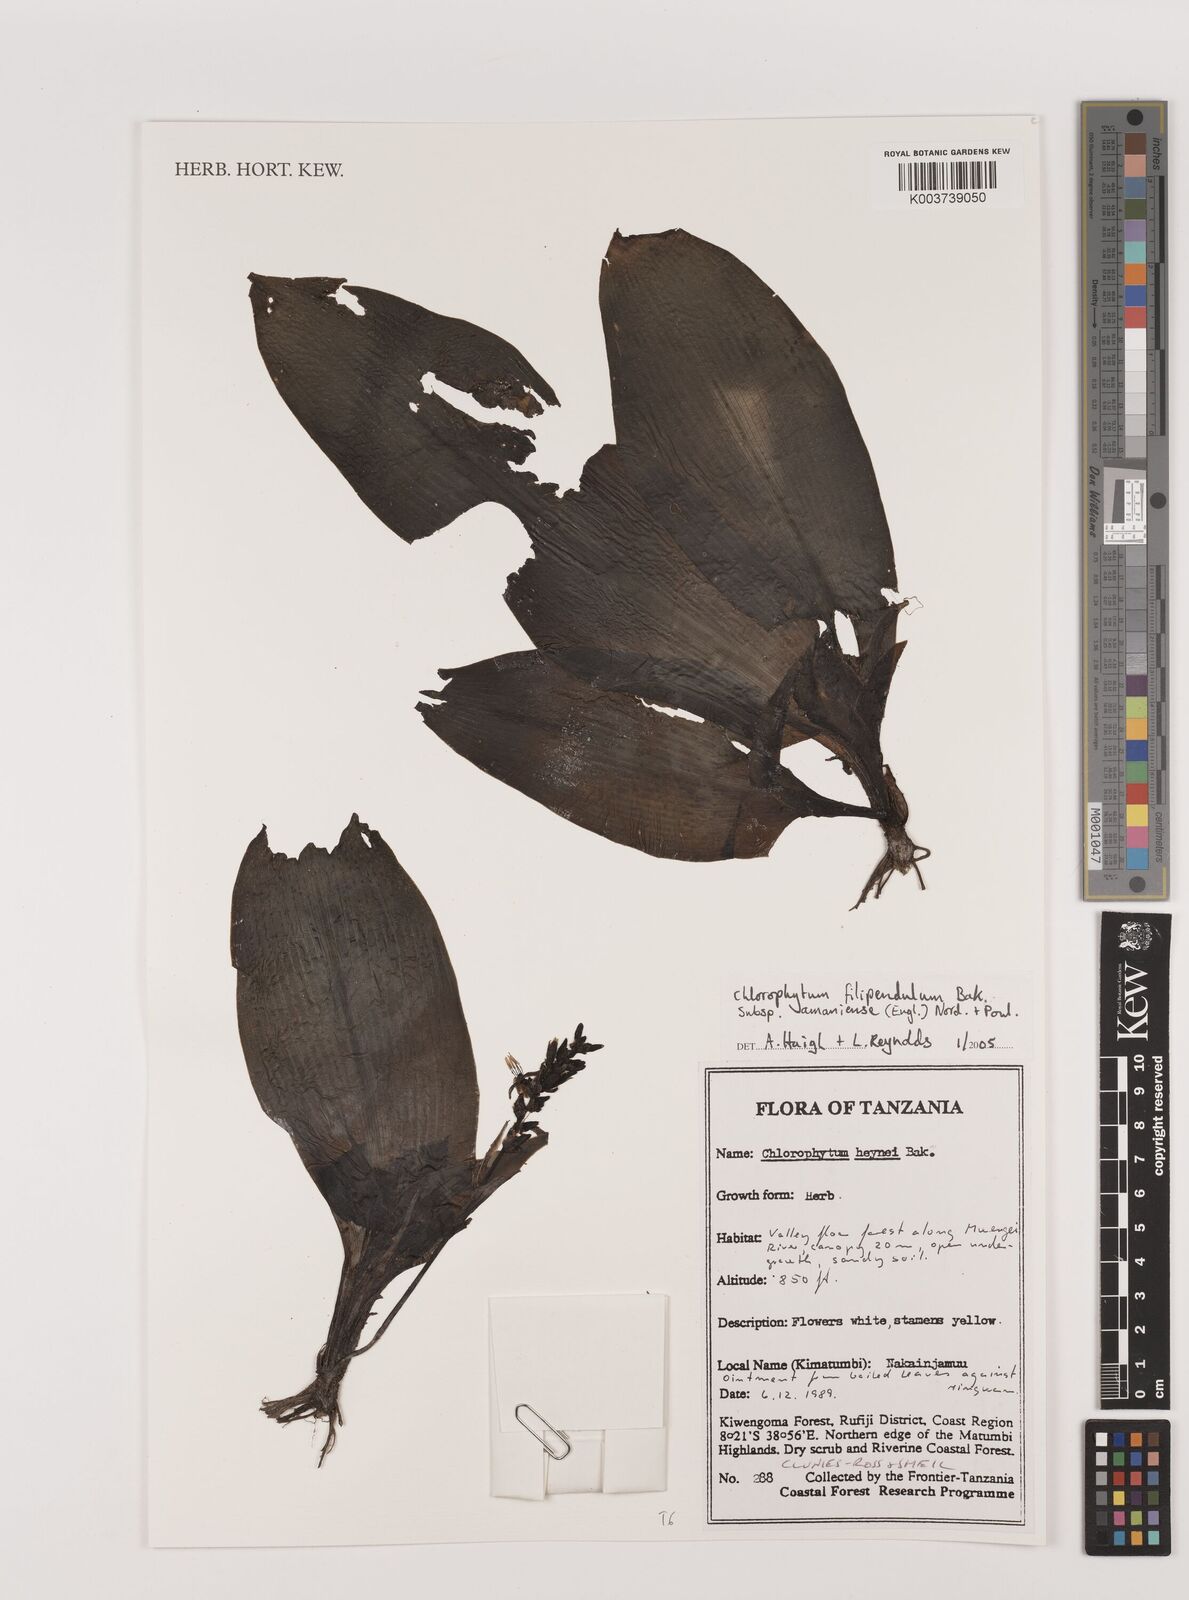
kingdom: Plantae
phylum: Tracheophyta
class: Liliopsida
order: Asparagales
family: Asparagaceae
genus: Chlorophytum
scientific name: Chlorophytum filipendulum
